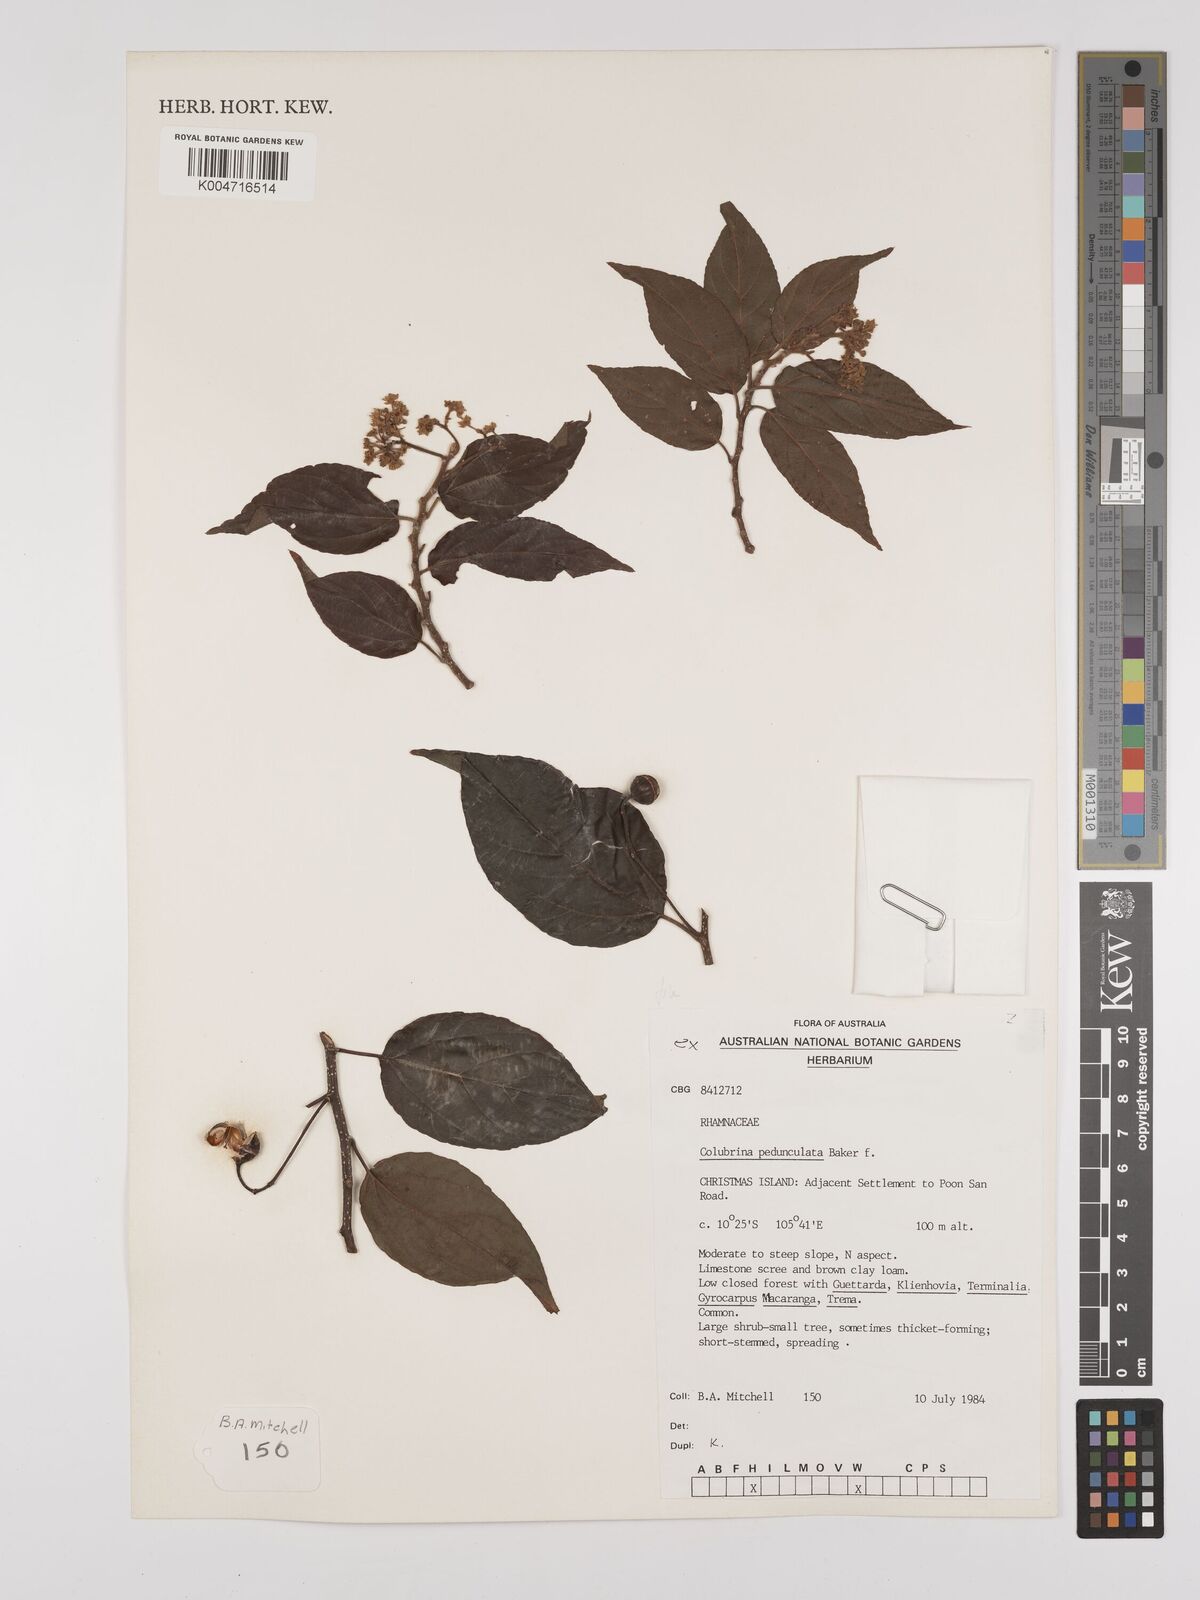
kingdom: Plantae
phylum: Tracheophyta
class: Magnoliopsida
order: Rosales
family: Rhamnaceae
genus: Colubrina
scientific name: Colubrina pedunculata
